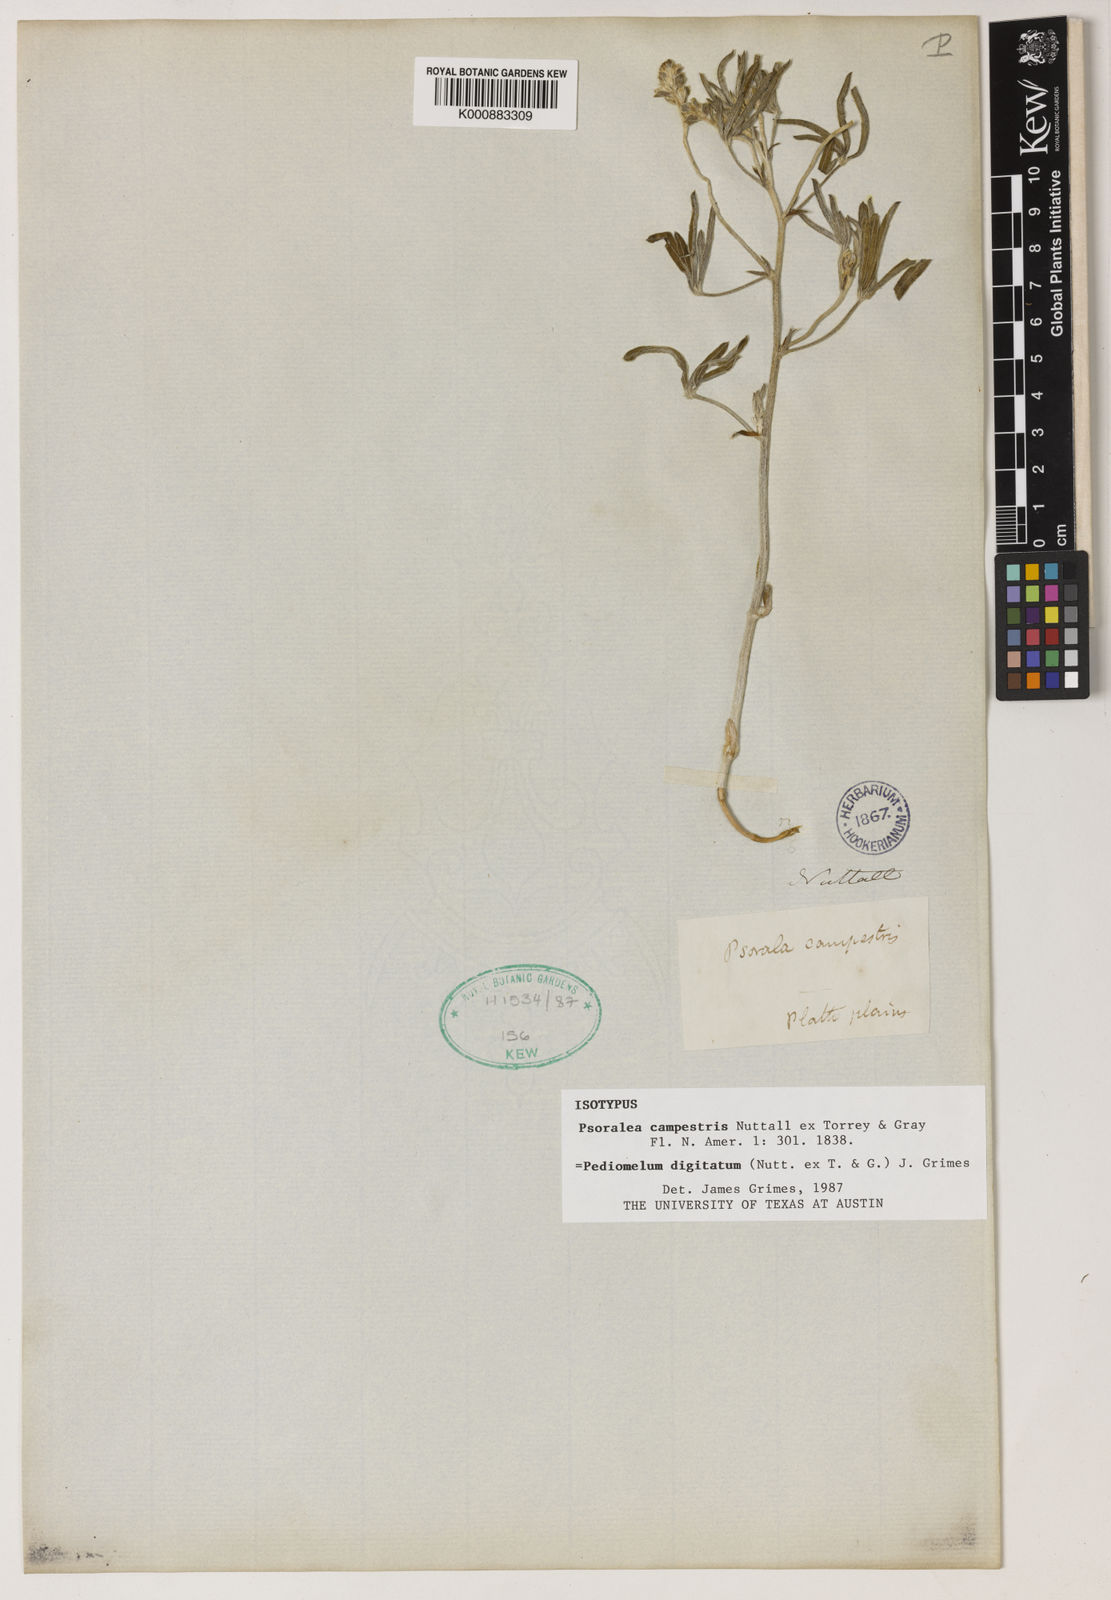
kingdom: Plantae
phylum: Tracheophyta
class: Magnoliopsida
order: Fabales
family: Fabaceae
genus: Pediomelum
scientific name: Pediomelum
